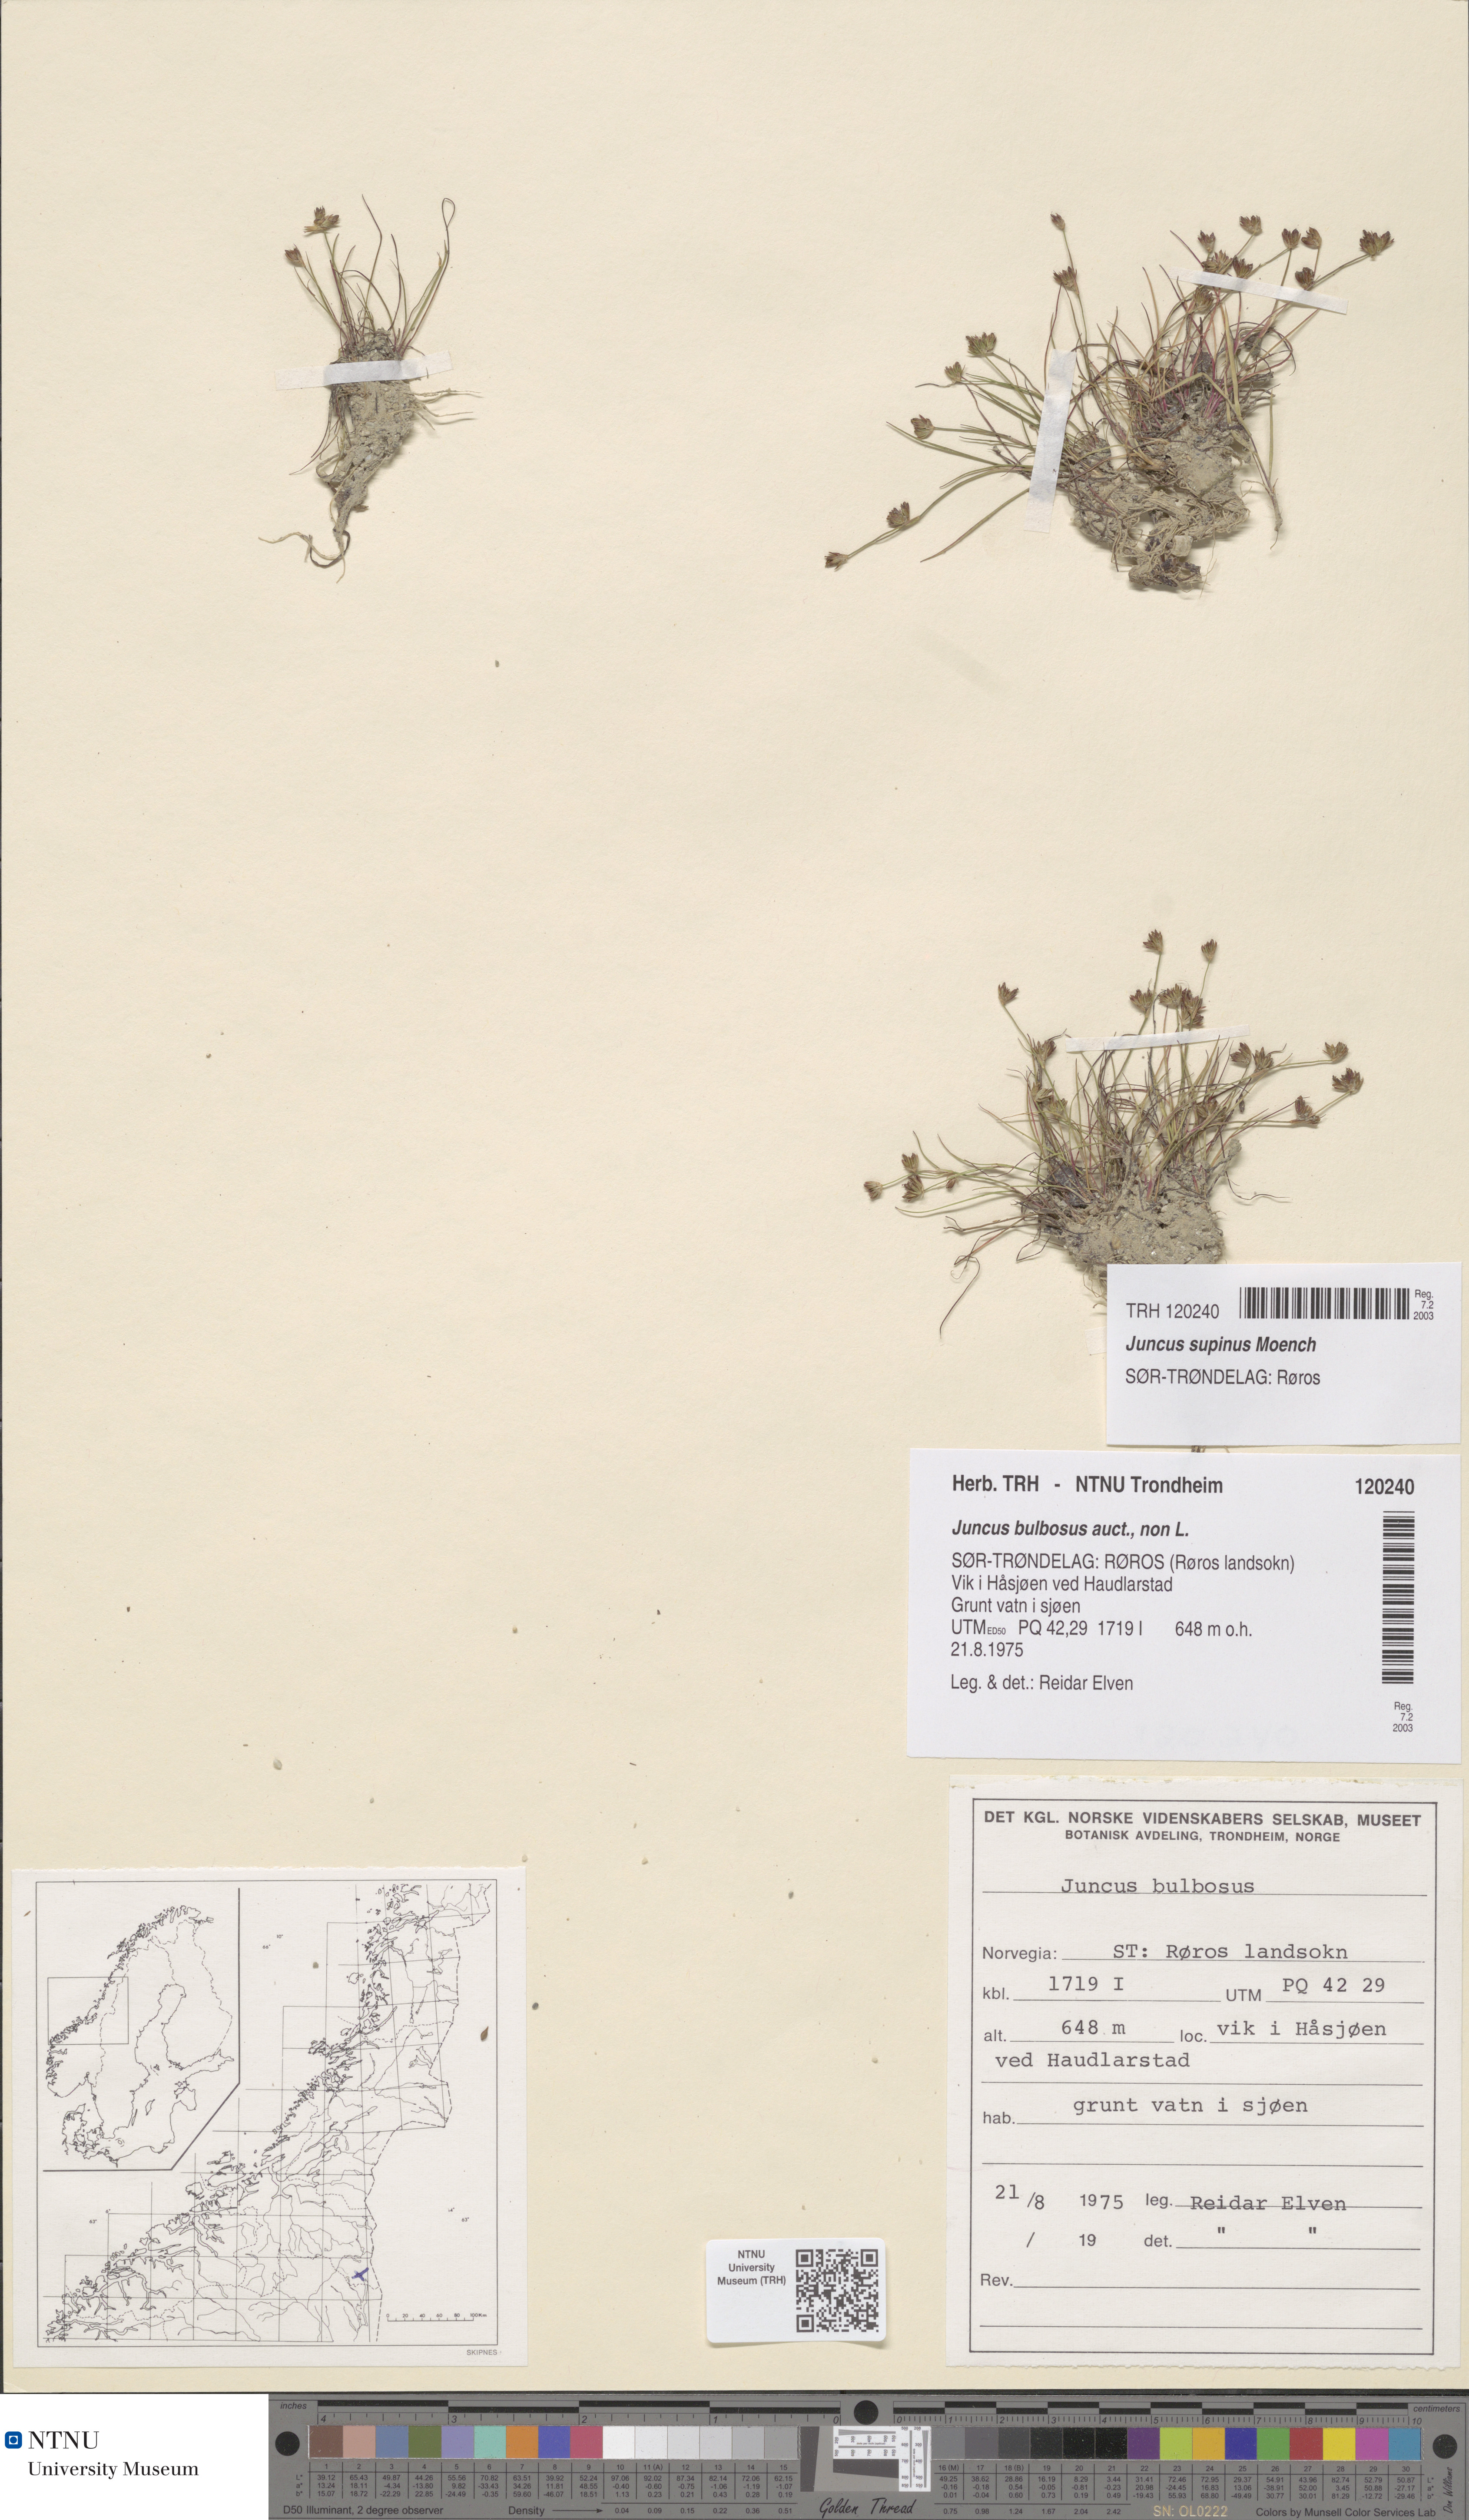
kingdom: Plantae
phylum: Tracheophyta
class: Liliopsida
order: Poales
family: Juncaceae
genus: Juncus
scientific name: Juncus bulbosus
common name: Bulbous rush
